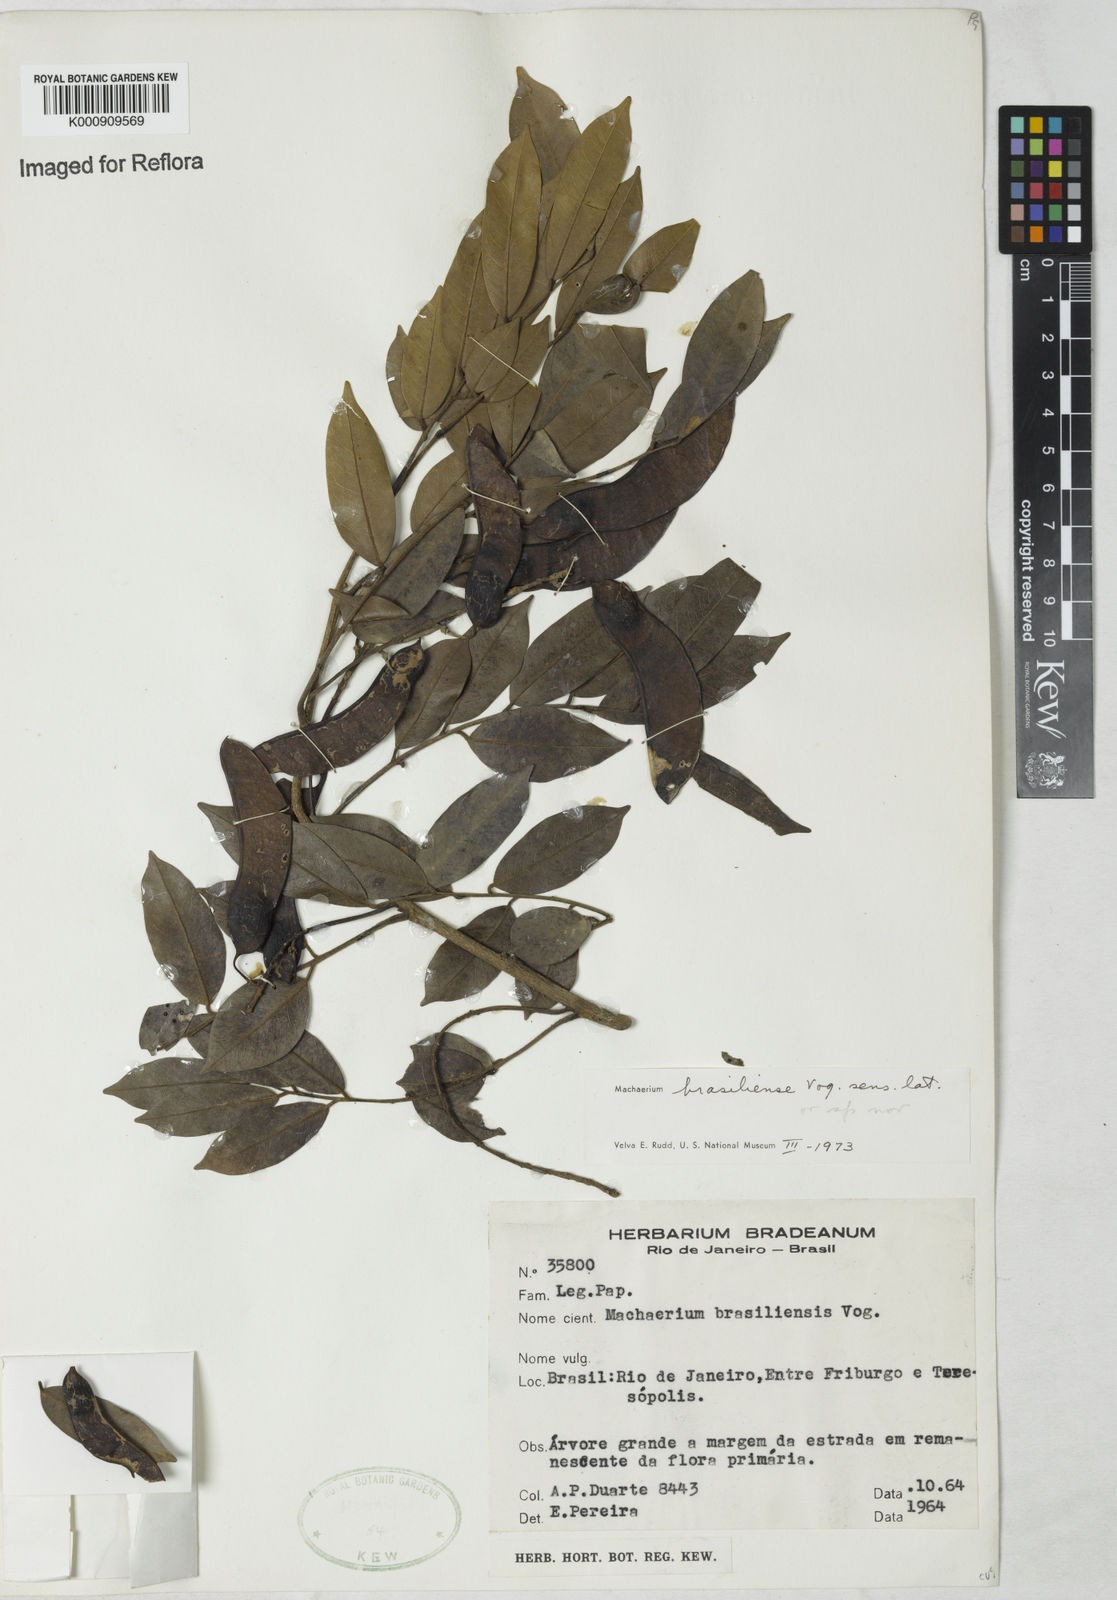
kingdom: Plantae
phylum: Tracheophyta
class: Magnoliopsida
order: Fabales
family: Fabaceae
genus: Machaerium
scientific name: Machaerium brasiliense
